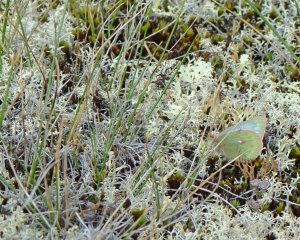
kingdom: Animalia
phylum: Arthropoda
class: Insecta
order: Lepidoptera
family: Pieridae
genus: Colias
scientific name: Colias nastes
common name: Labrador Sulphur
